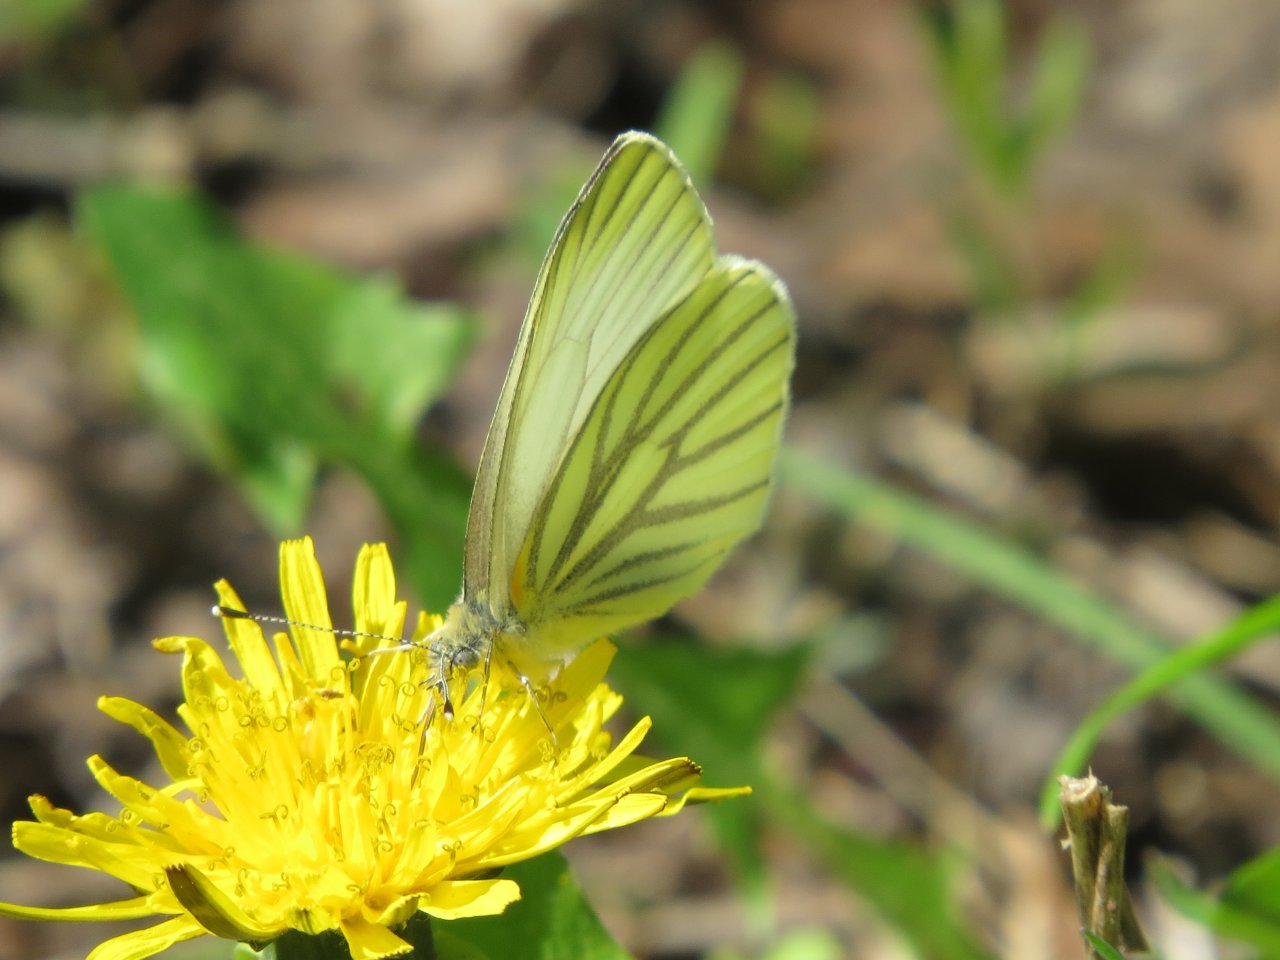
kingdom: Animalia
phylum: Arthropoda
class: Insecta
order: Lepidoptera
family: Pieridae
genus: Pieris
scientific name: Pieris oleracea
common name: Mustard White
